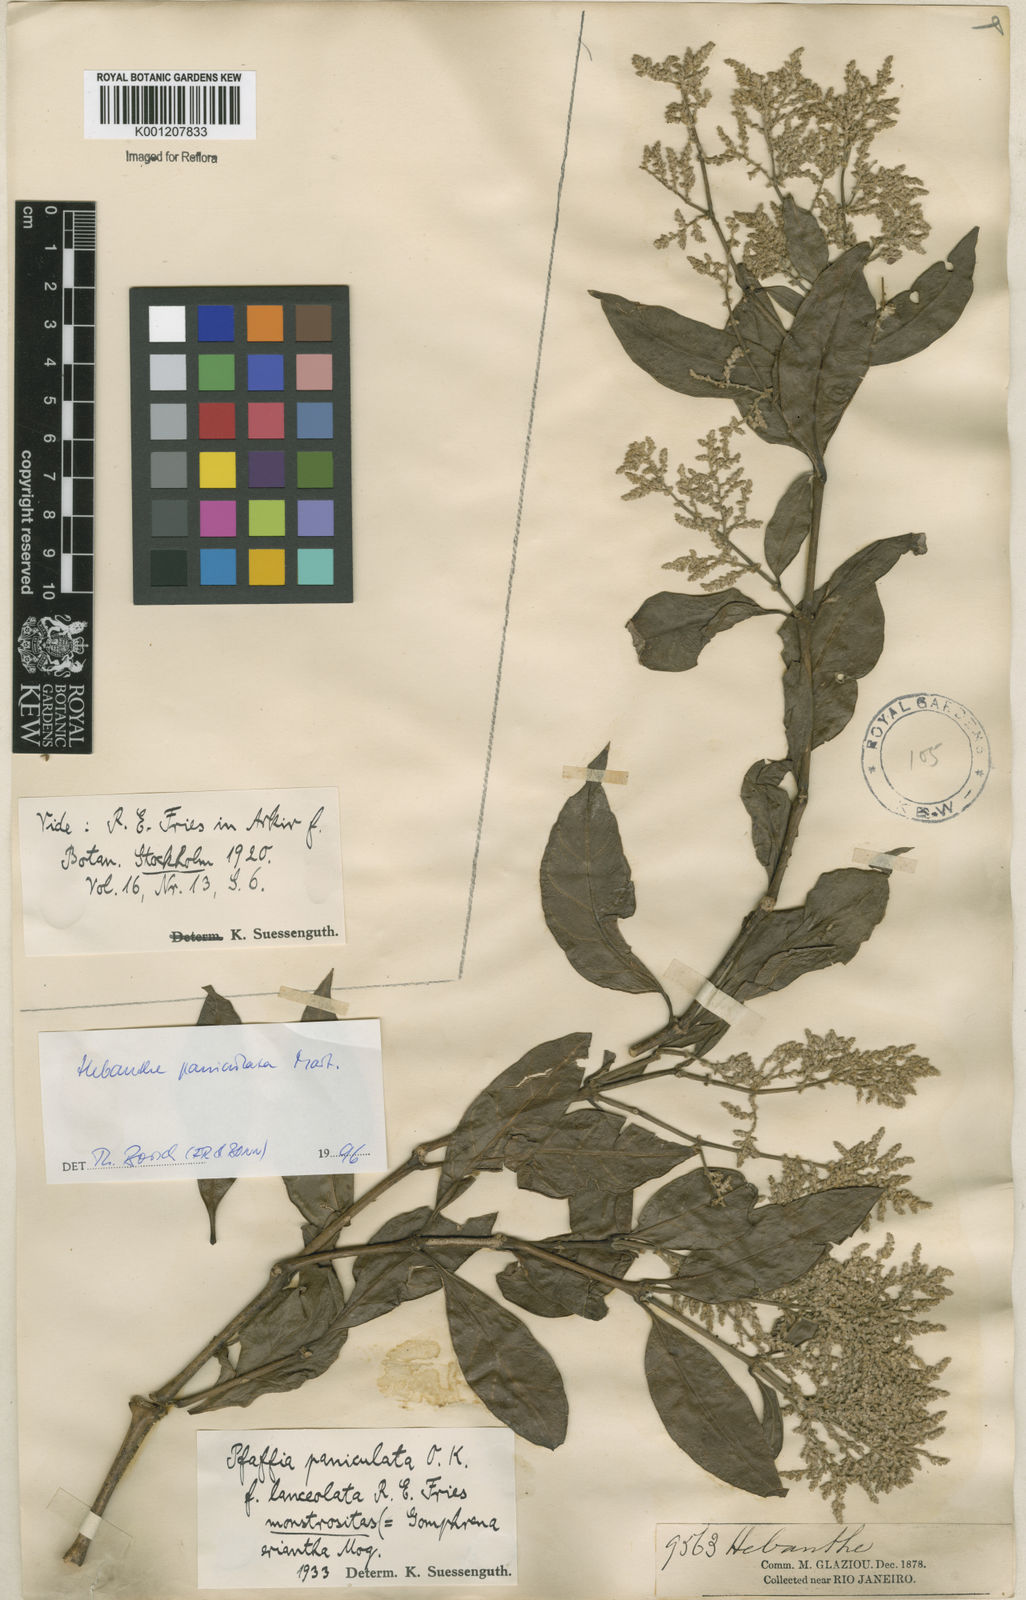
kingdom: Plantae
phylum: Tracheophyta
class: Magnoliopsida
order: Caryophyllales
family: Amaranthaceae
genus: Hebanthe
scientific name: Hebanthe erianthos
